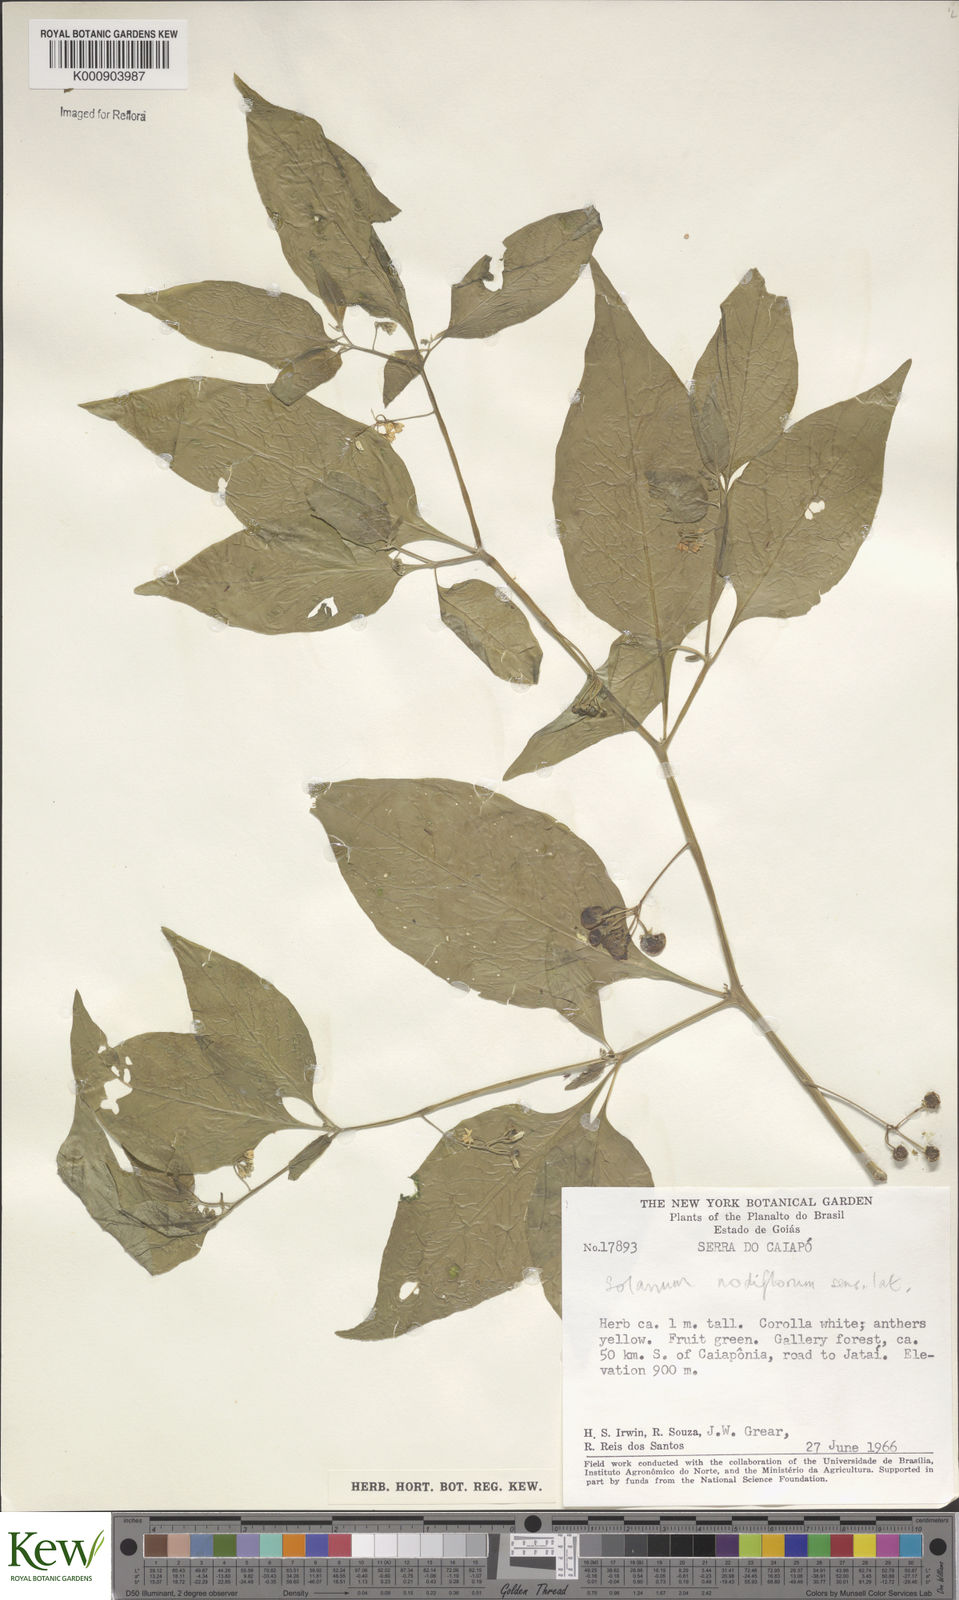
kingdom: Plantae
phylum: Tracheophyta
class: Magnoliopsida
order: Solanales
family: Solanaceae
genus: Solanum
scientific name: Solanum americanum
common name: American black nightshade
